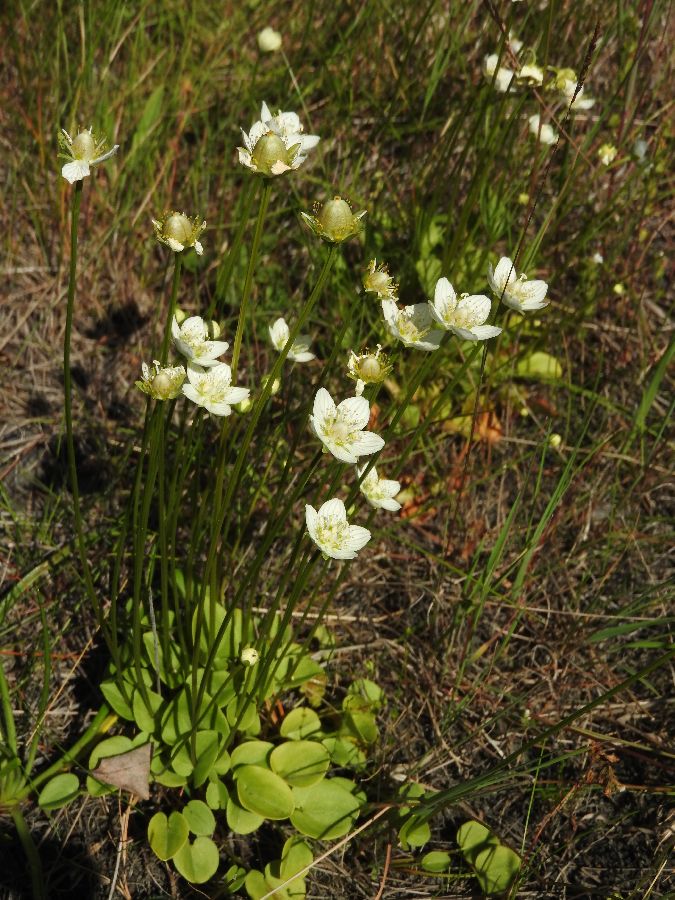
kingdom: Plantae
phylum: Tracheophyta
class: Magnoliopsida
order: Celastrales
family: Parnassiaceae
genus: Parnassia
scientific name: Parnassia palustris
